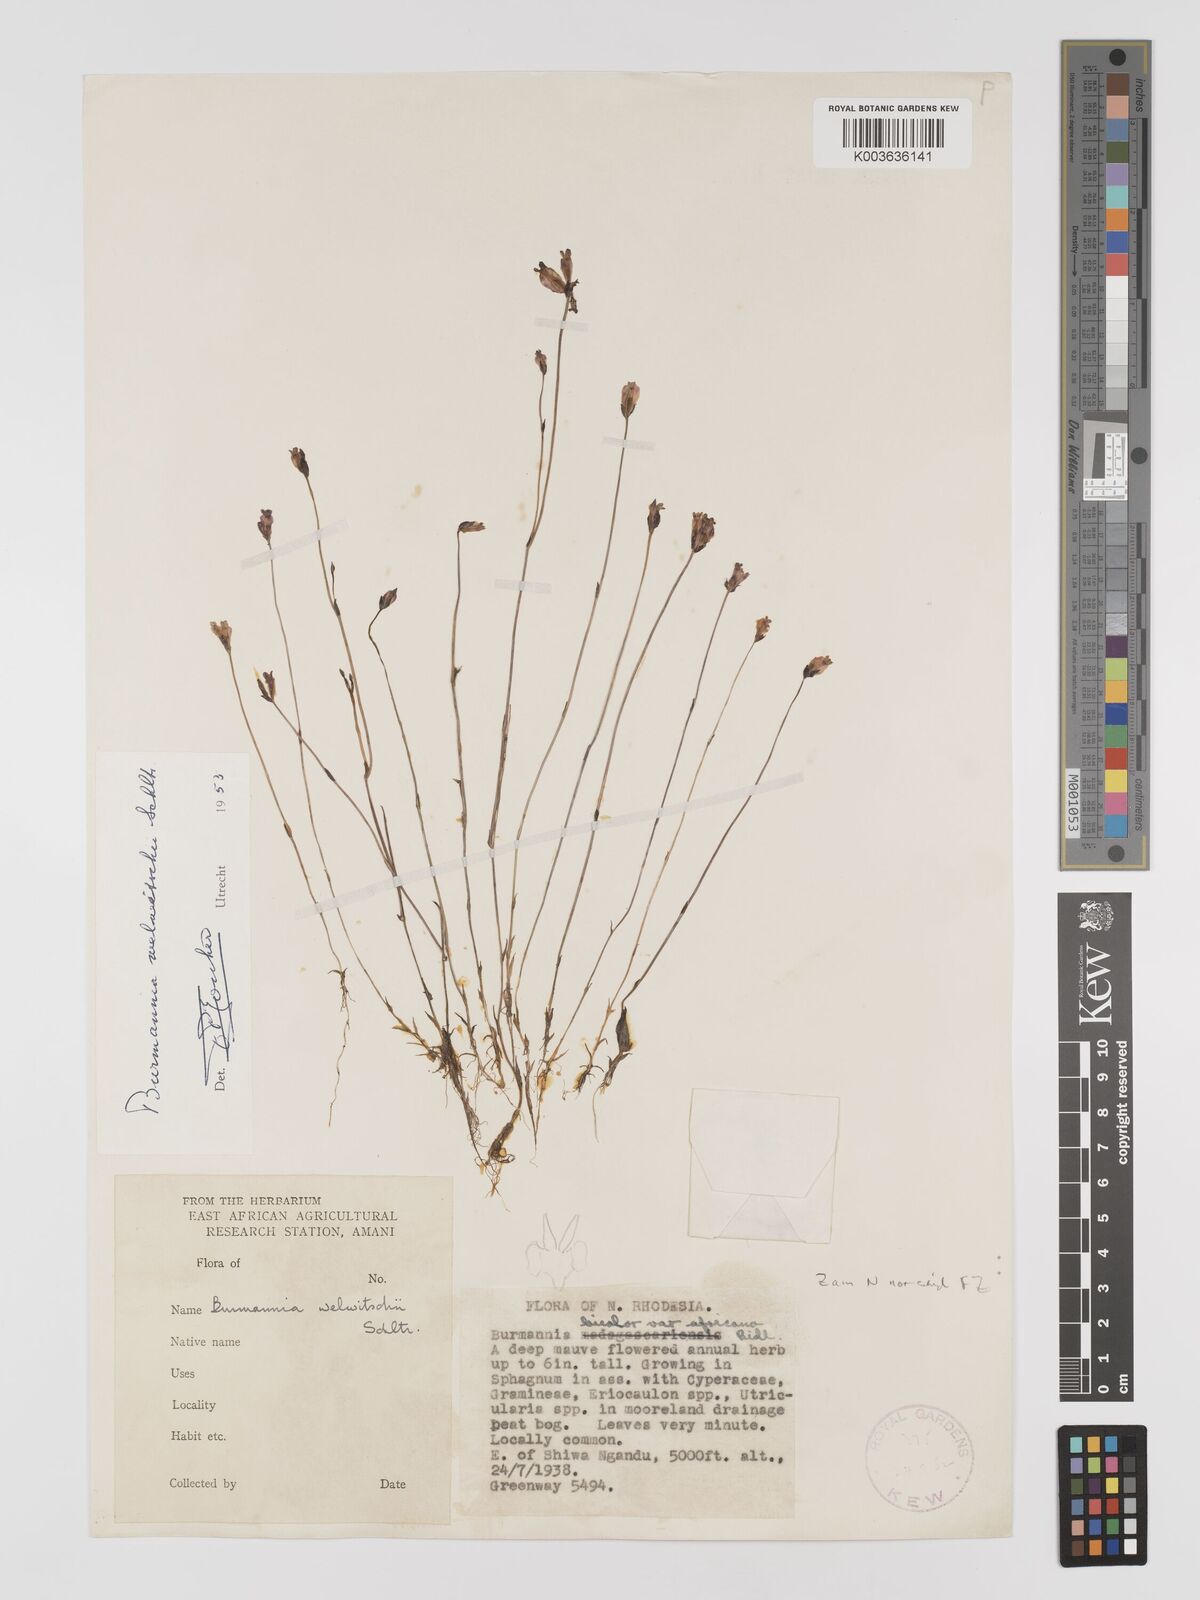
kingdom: Plantae
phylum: Tracheophyta
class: Liliopsida
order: Dioscoreales
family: Burmanniaceae
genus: Burmannia
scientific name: Burmannia madagascariensis
